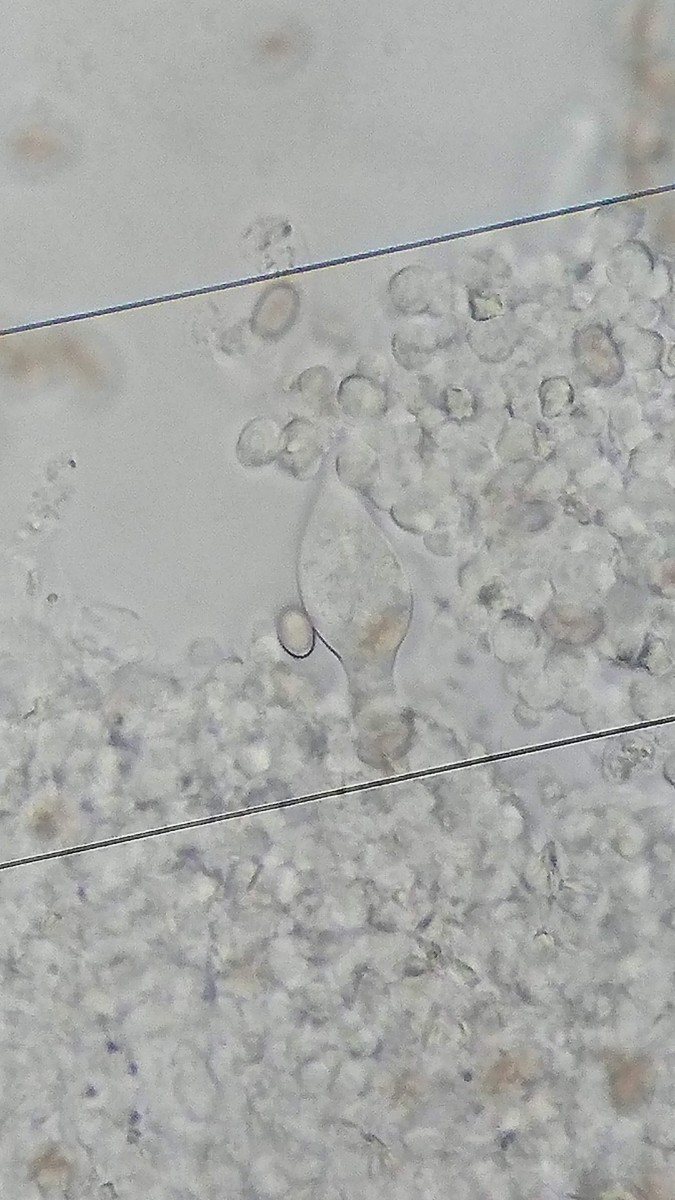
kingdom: Fungi
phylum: Basidiomycota
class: Agaricomycetes
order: Agaricales
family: Strophariaceae
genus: Agrocybe
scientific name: Agrocybe praecox
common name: tidlig agerhat
